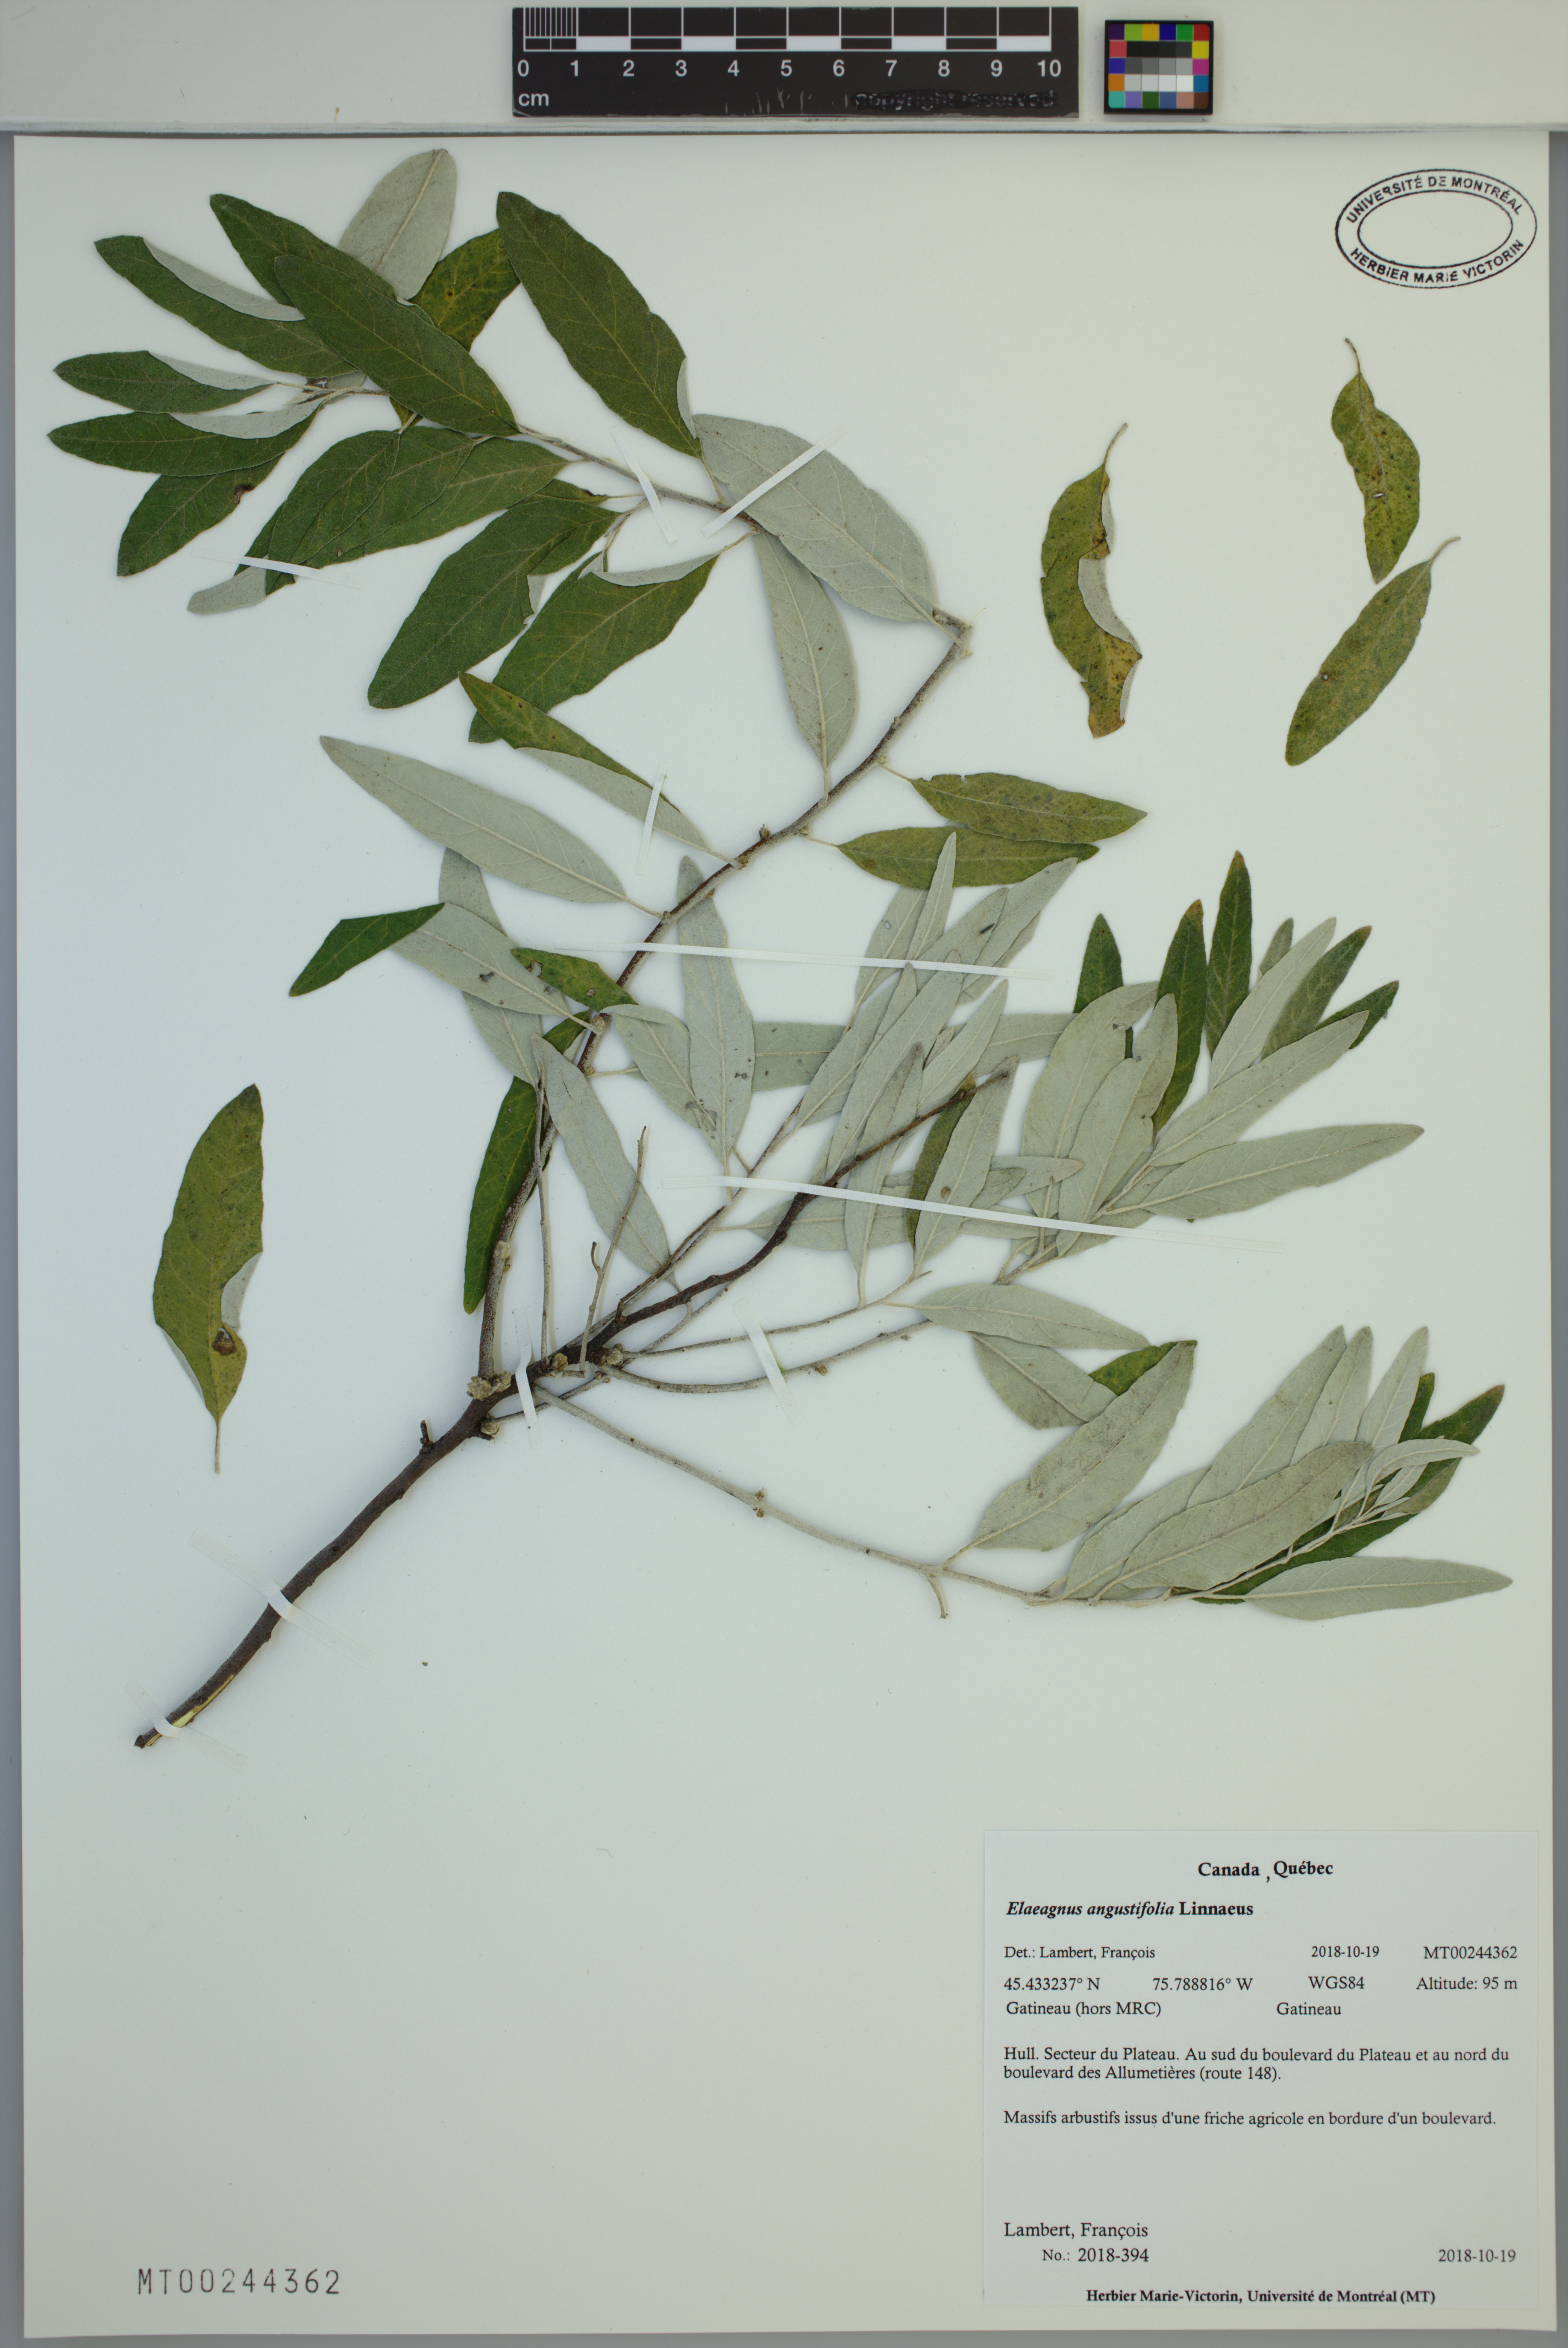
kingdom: Plantae
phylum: Tracheophyta
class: Magnoliopsida
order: Rosales
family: Elaeagnaceae
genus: Elaeagnus
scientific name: Elaeagnus angustifolia
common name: Russian olive
